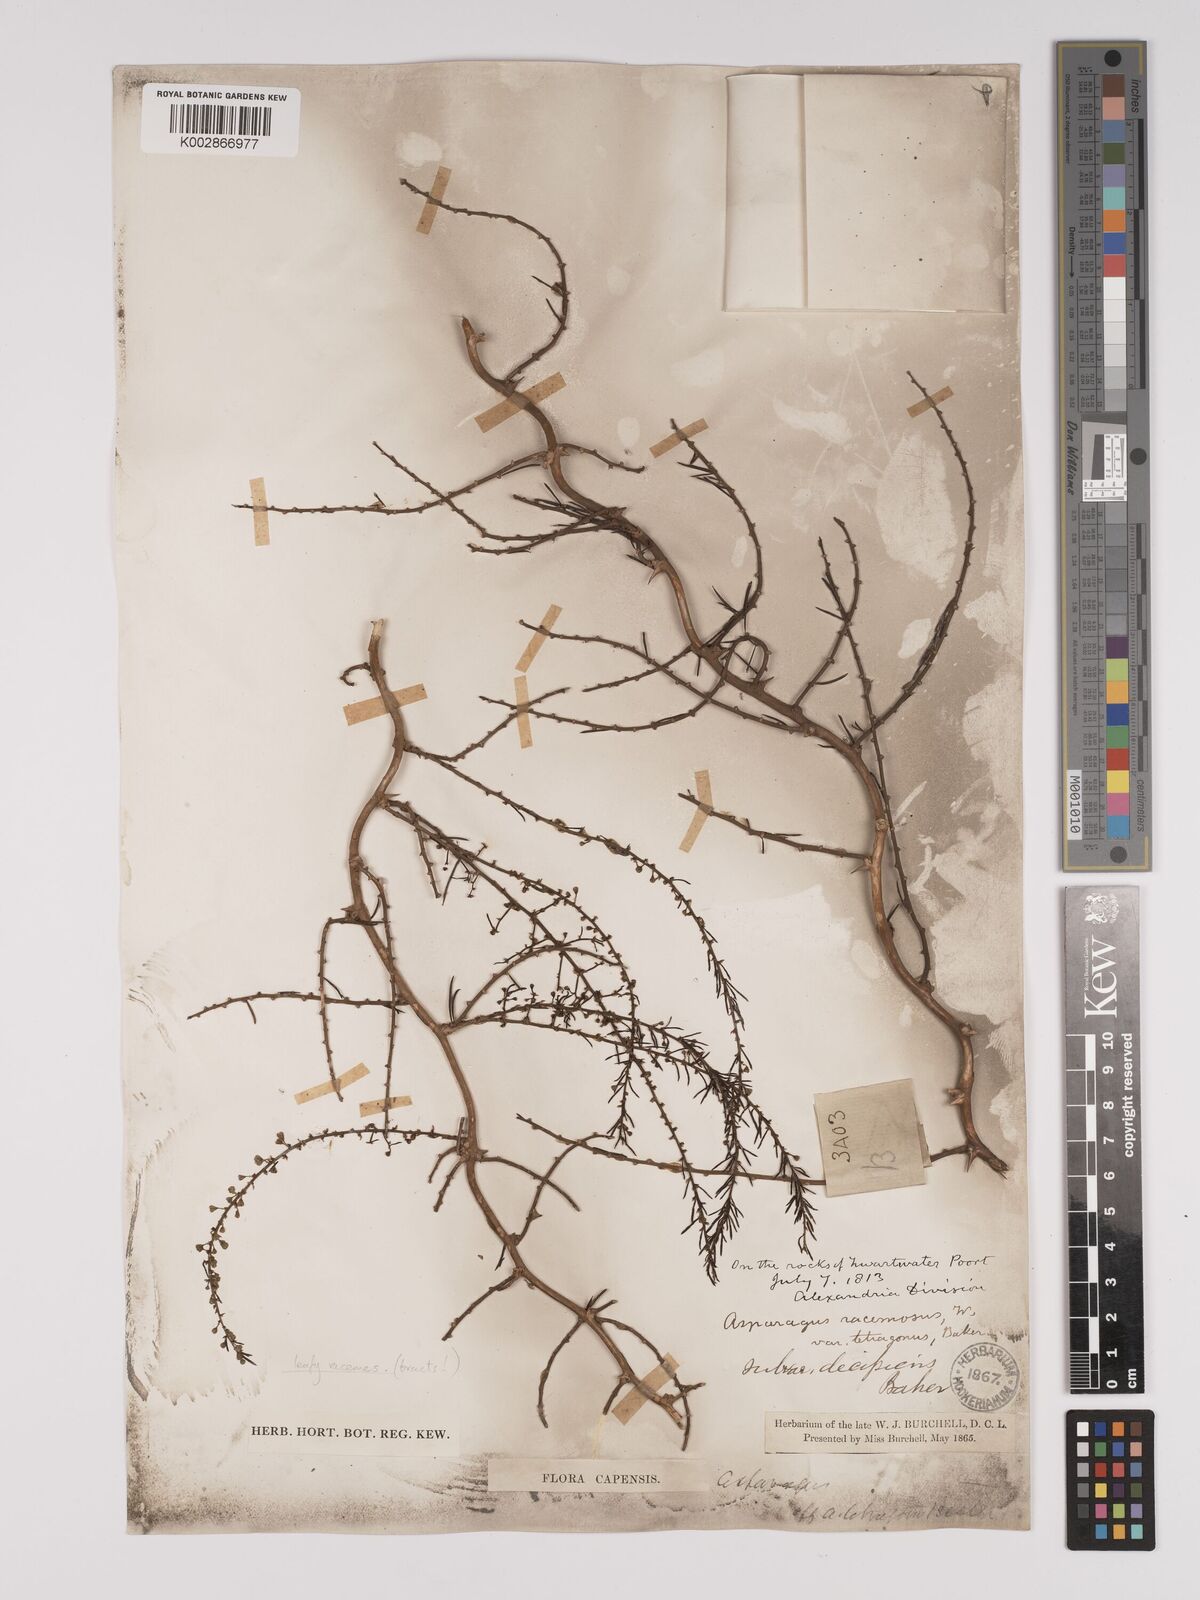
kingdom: Plantae
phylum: Tracheophyta
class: Liliopsida
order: Asparagales
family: Asparagaceae
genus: Asparagus
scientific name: Asparagus racemosus
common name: Asparagus-fern
